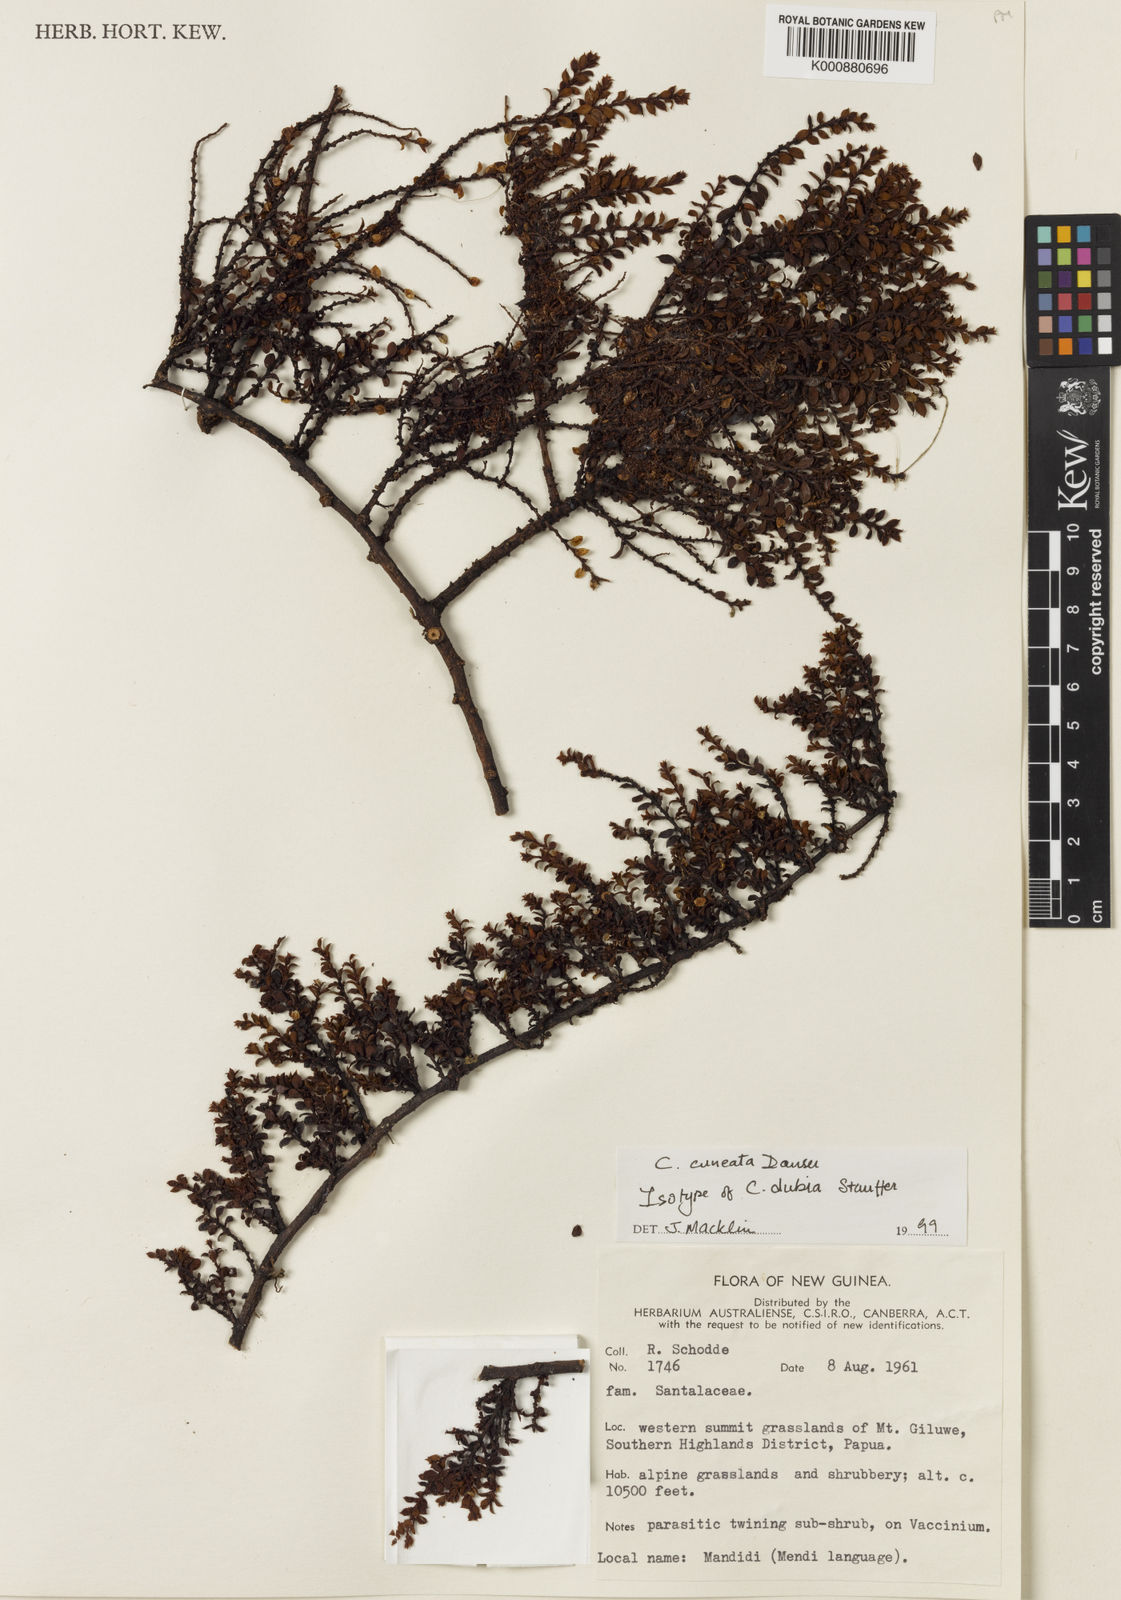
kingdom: Plantae
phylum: Tracheophyta
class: Magnoliopsida
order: Santalales
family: Amphorogynaceae
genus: Cladomyza
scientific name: Cladomyza cuneata
